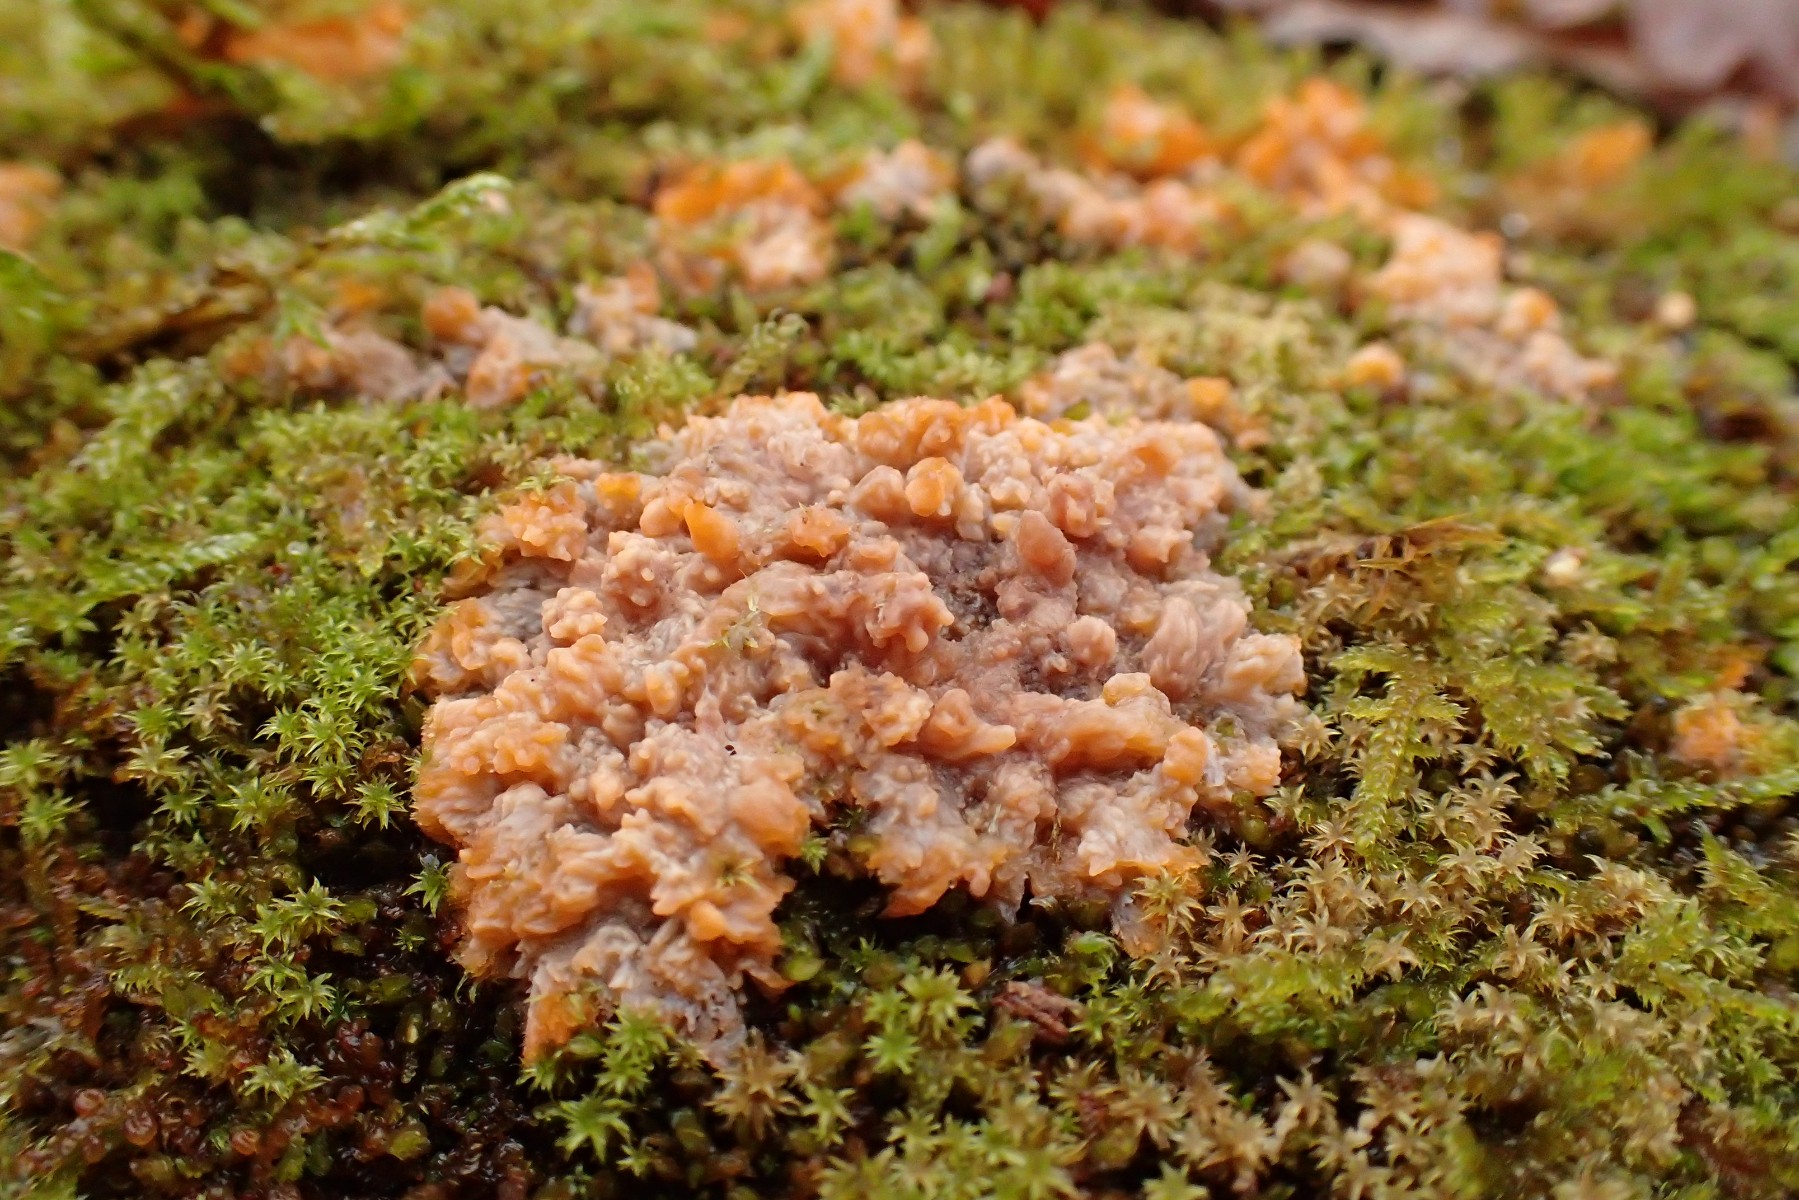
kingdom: Fungi
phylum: Basidiomycota
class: Agaricomycetes
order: Polyporales
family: Meruliaceae
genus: Phlebia
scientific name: Phlebia radiata
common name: stråle-åresvamp
